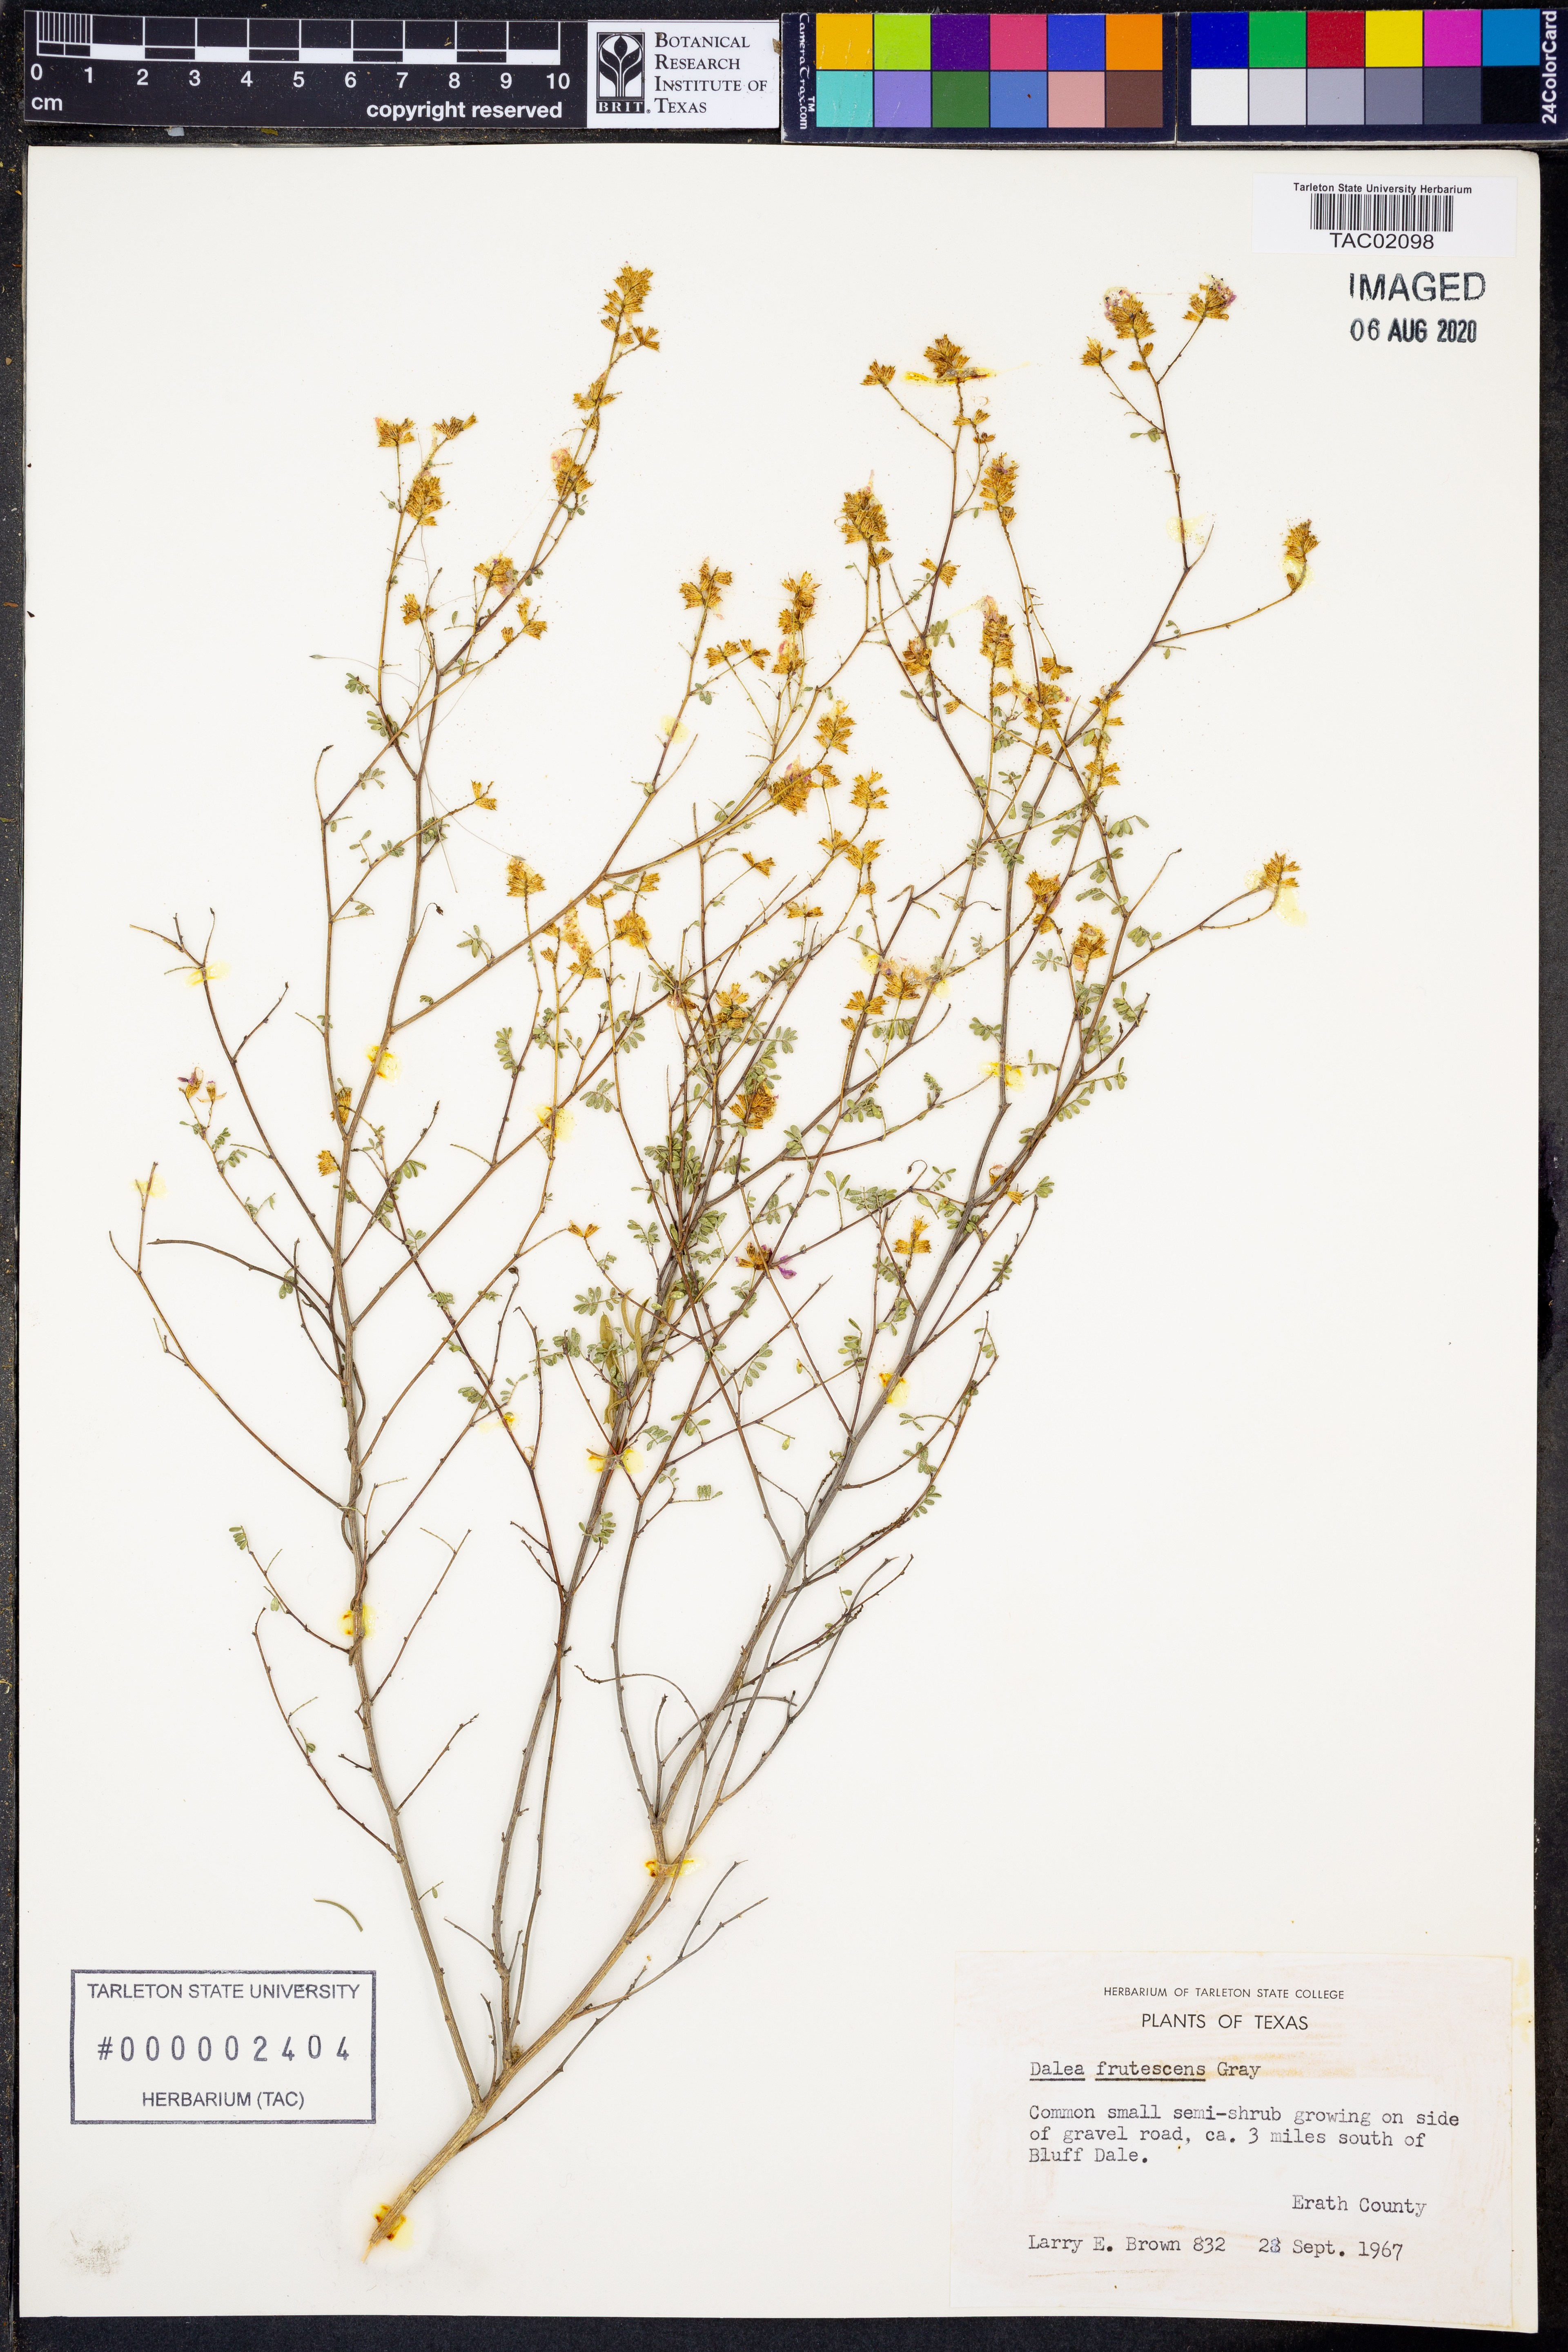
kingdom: Plantae
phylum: Tracheophyta
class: Magnoliopsida
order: Fabales
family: Fabaceae
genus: Dalea
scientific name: Dalea frutescens
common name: Black dalea
